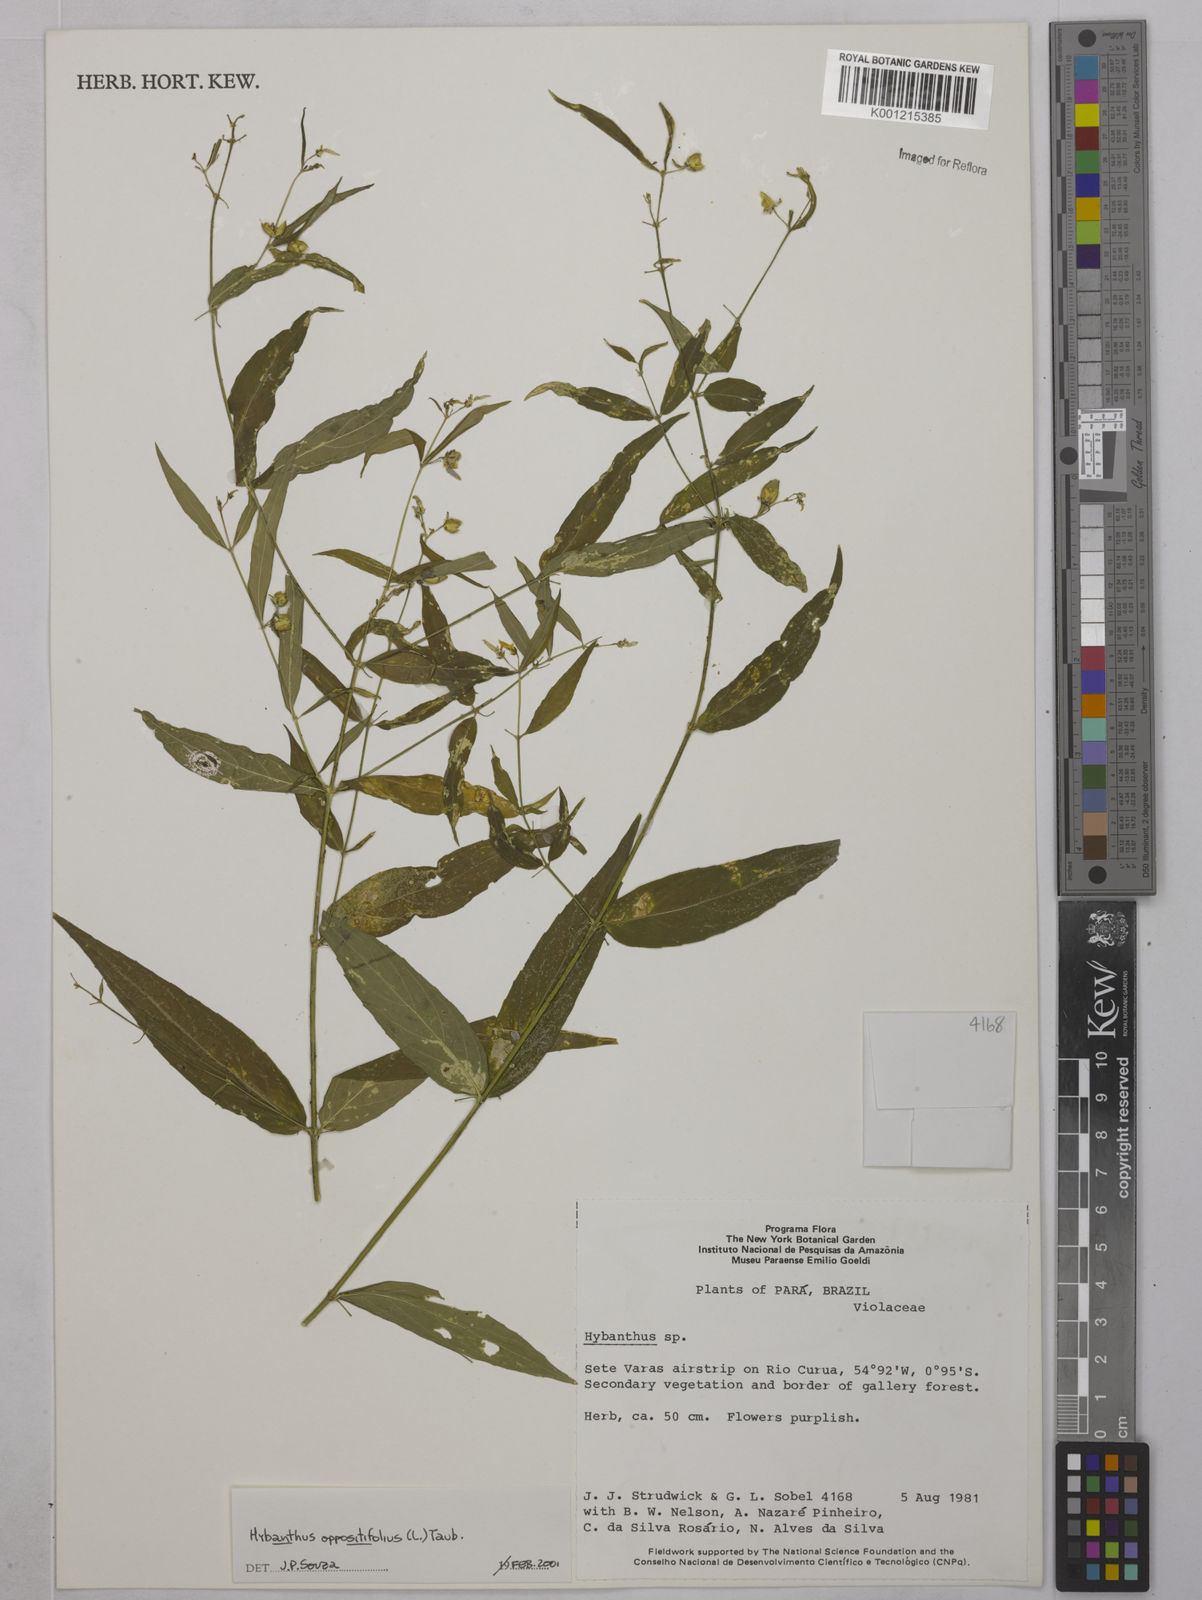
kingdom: Plantae
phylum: Tracheophyta
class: Magnoliopsida
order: Malpighiales
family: Violaceae
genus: Pombalia
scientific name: Pombalia oppositifolia
